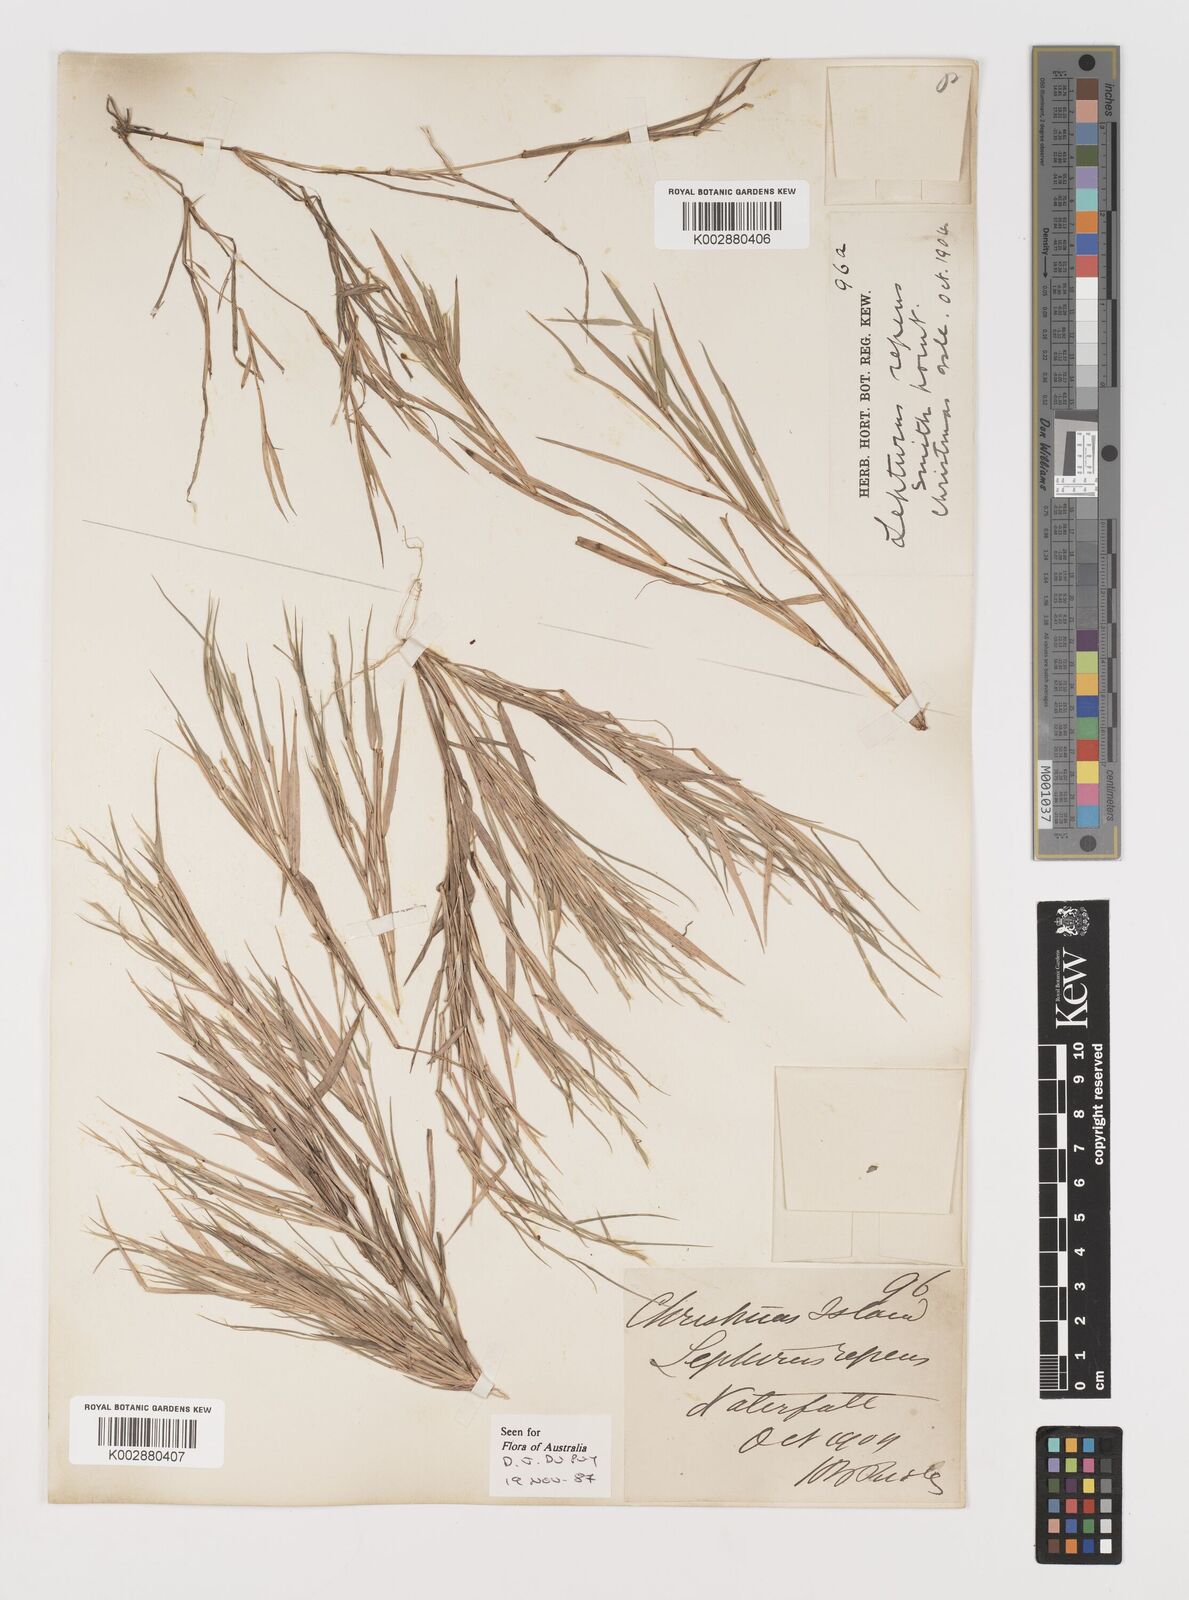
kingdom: Plantae
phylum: Tracheophyta
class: Liliopsida
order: Poales
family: Poaceae
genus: Lepturus
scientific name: Lepturus repens
